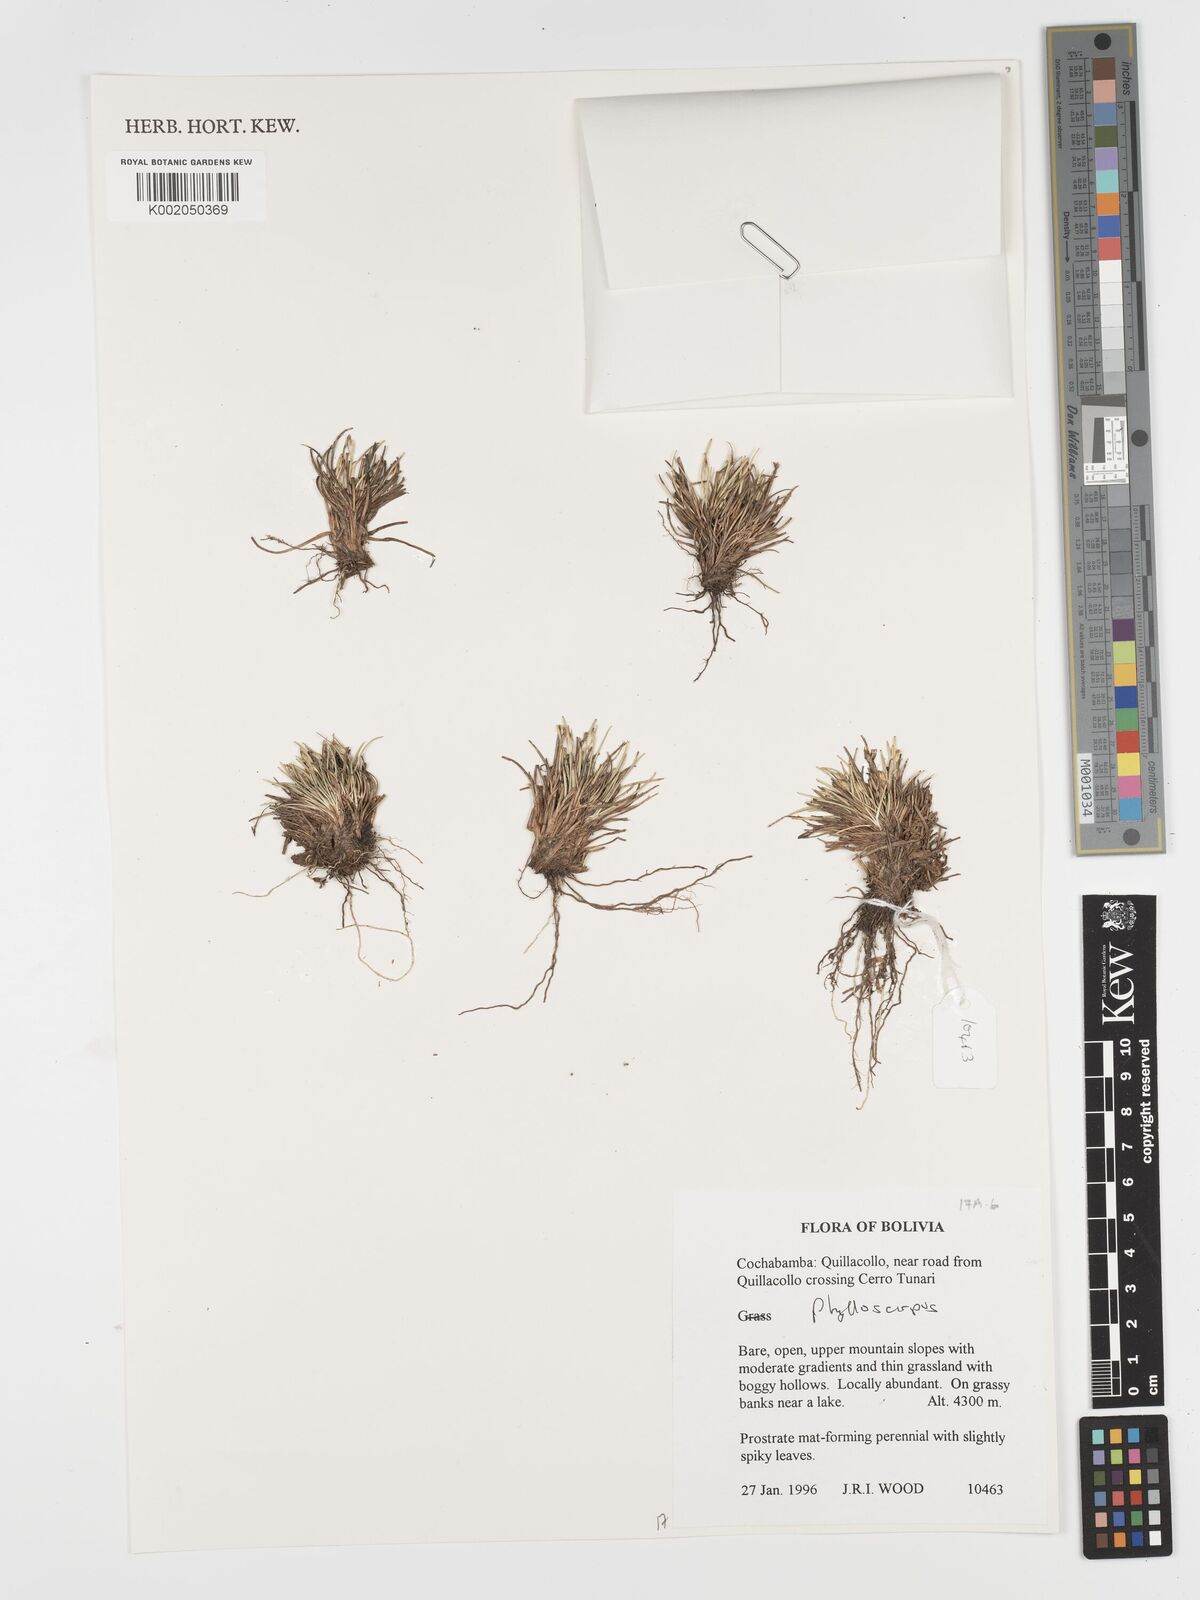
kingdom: Plantae
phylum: Tracheophyta
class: Liliopsida
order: Poales
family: Cyperaceae
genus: Phylloscirpus
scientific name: Phylloscirpus
